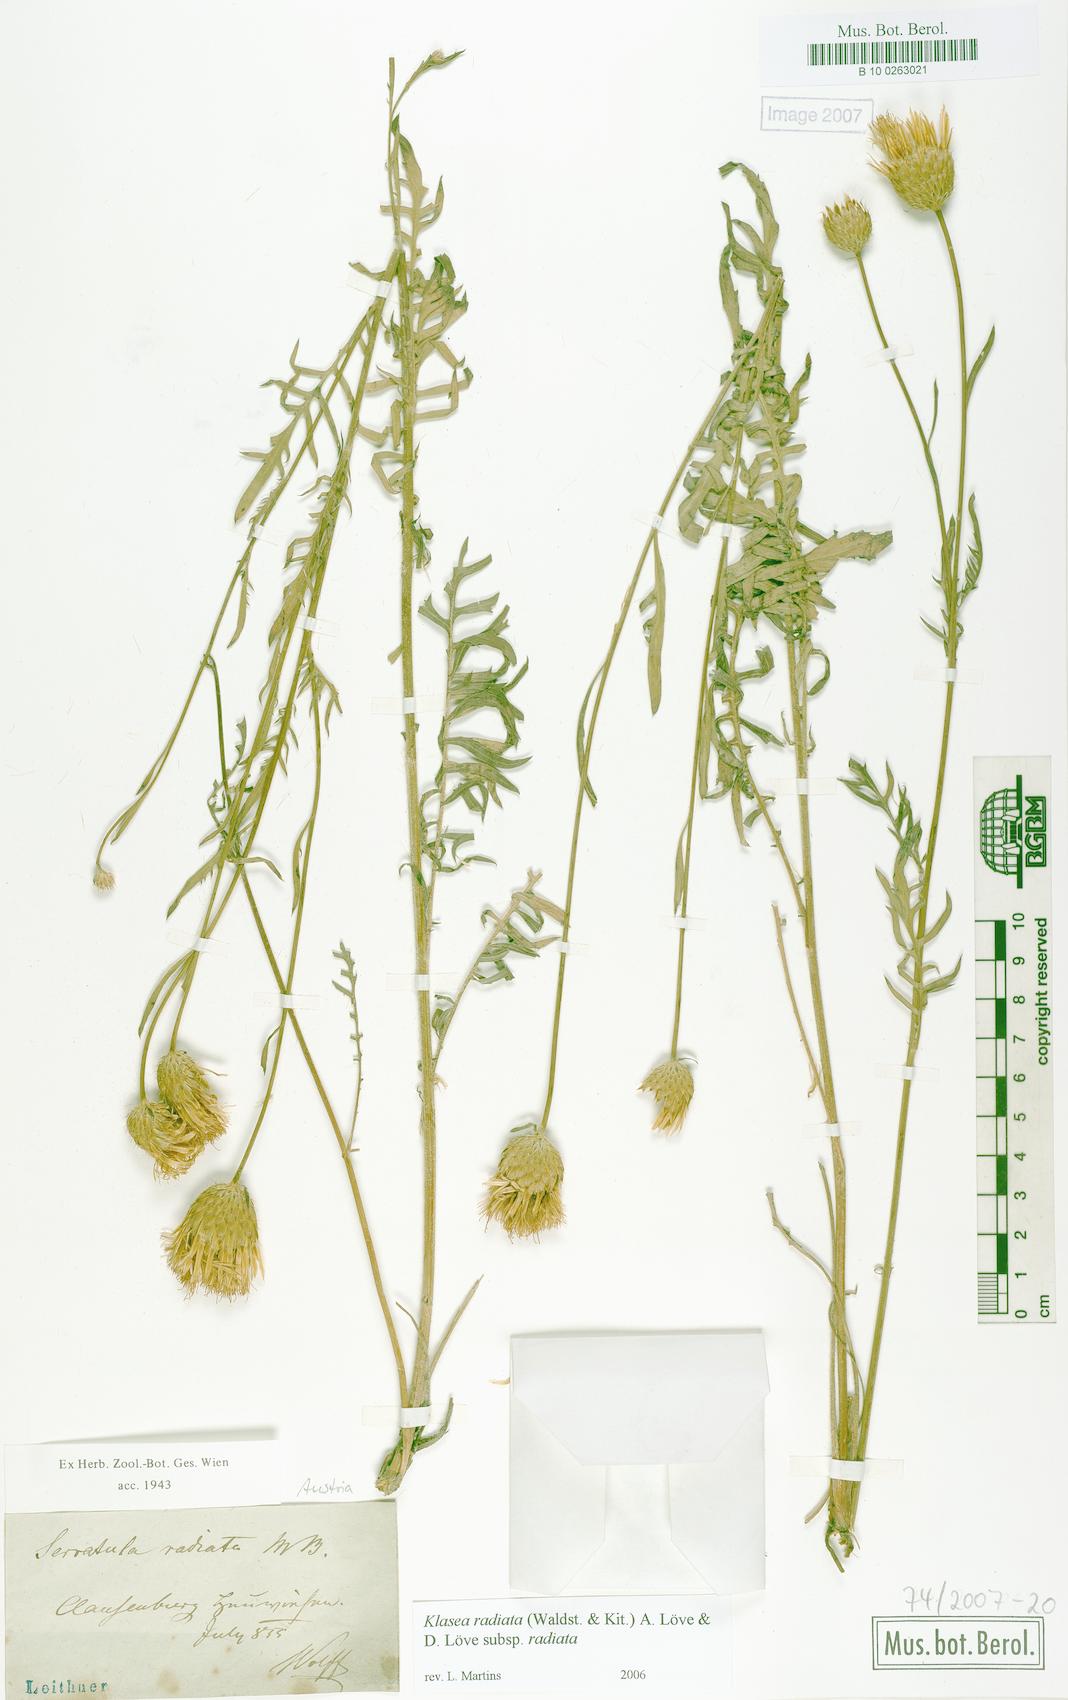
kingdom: Plantae
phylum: Tracheophyta
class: Magnoliopsida
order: Asterales
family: Asteraceae
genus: Klasea
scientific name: Klasea radiata
